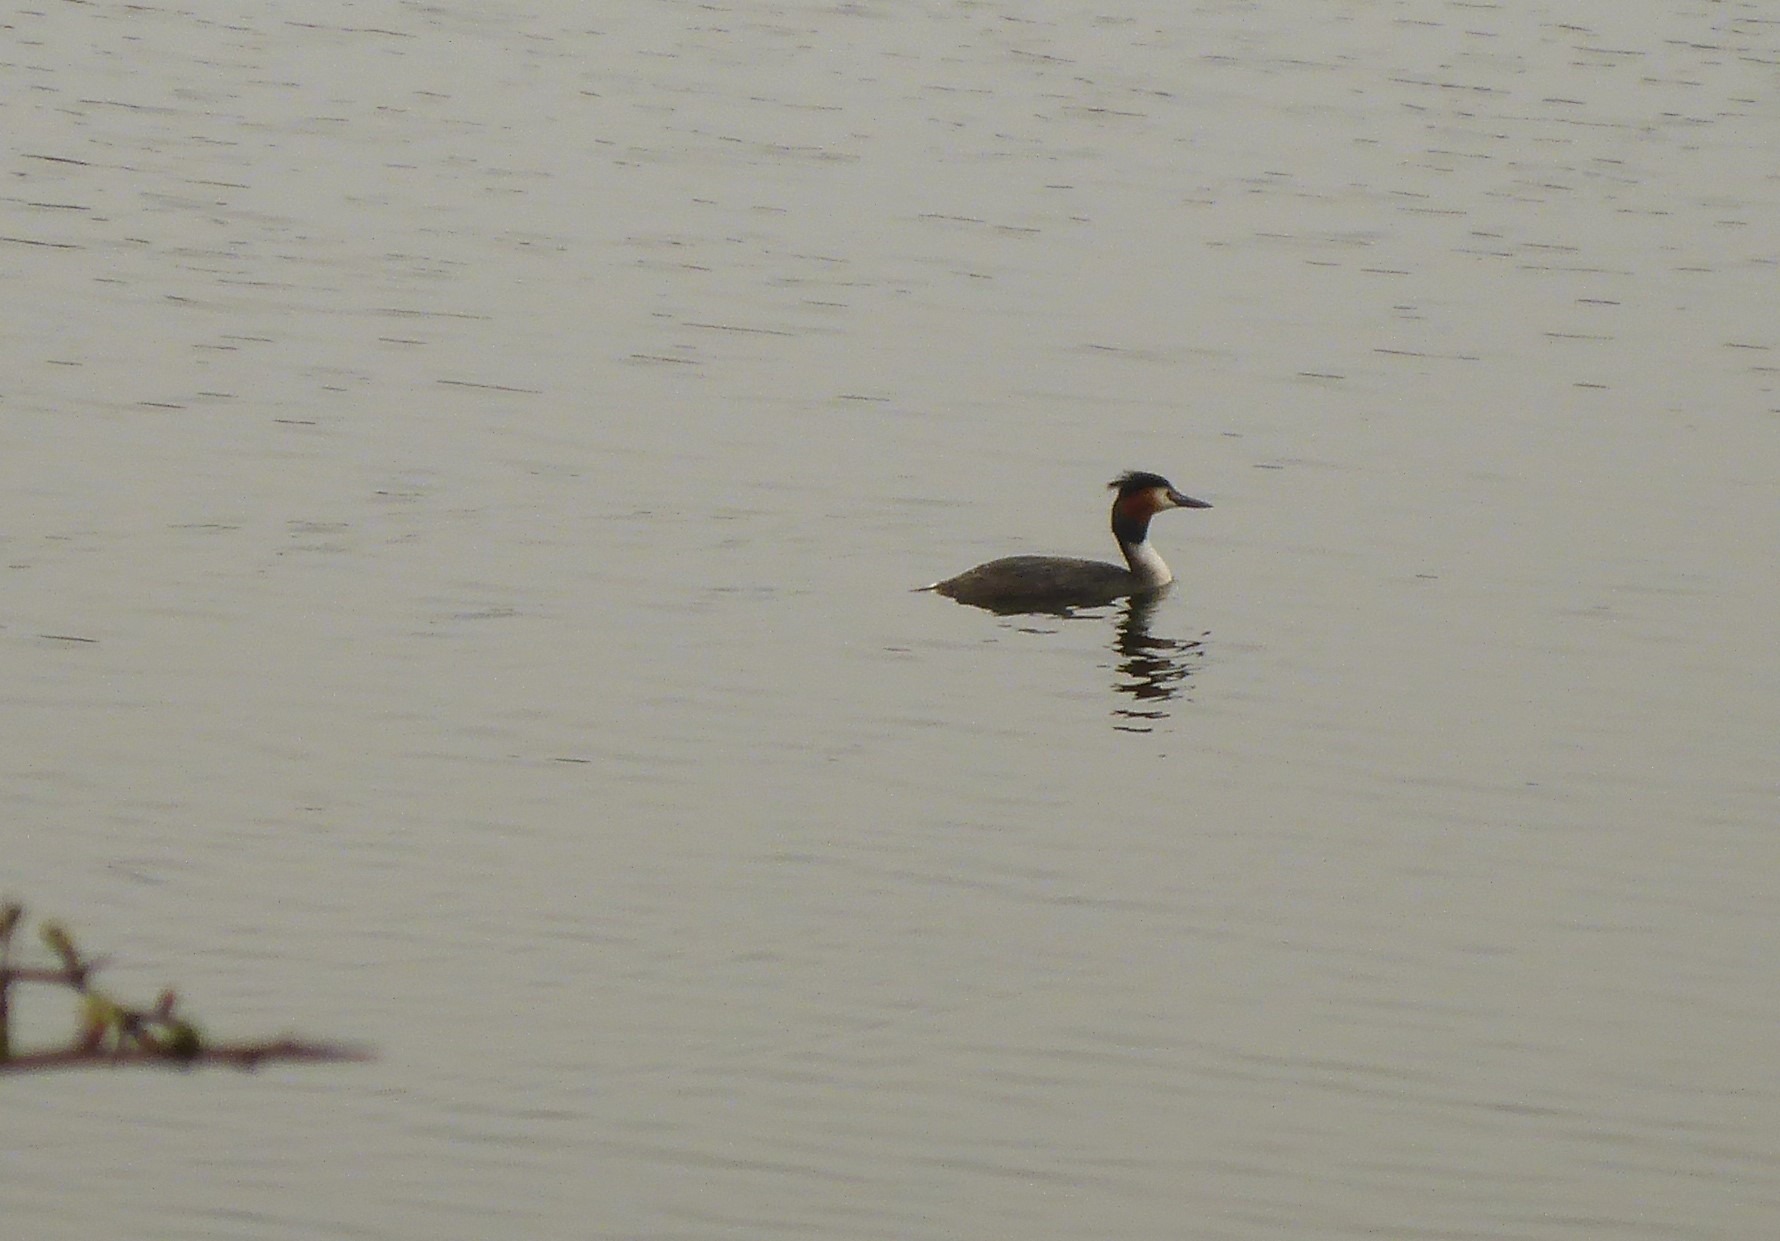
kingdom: Animalia
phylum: Chordata
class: Aves
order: Podicipediformes
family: Podicipedidae
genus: Podiceps
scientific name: Podiceps cristatus
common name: Toppet lappedykker
